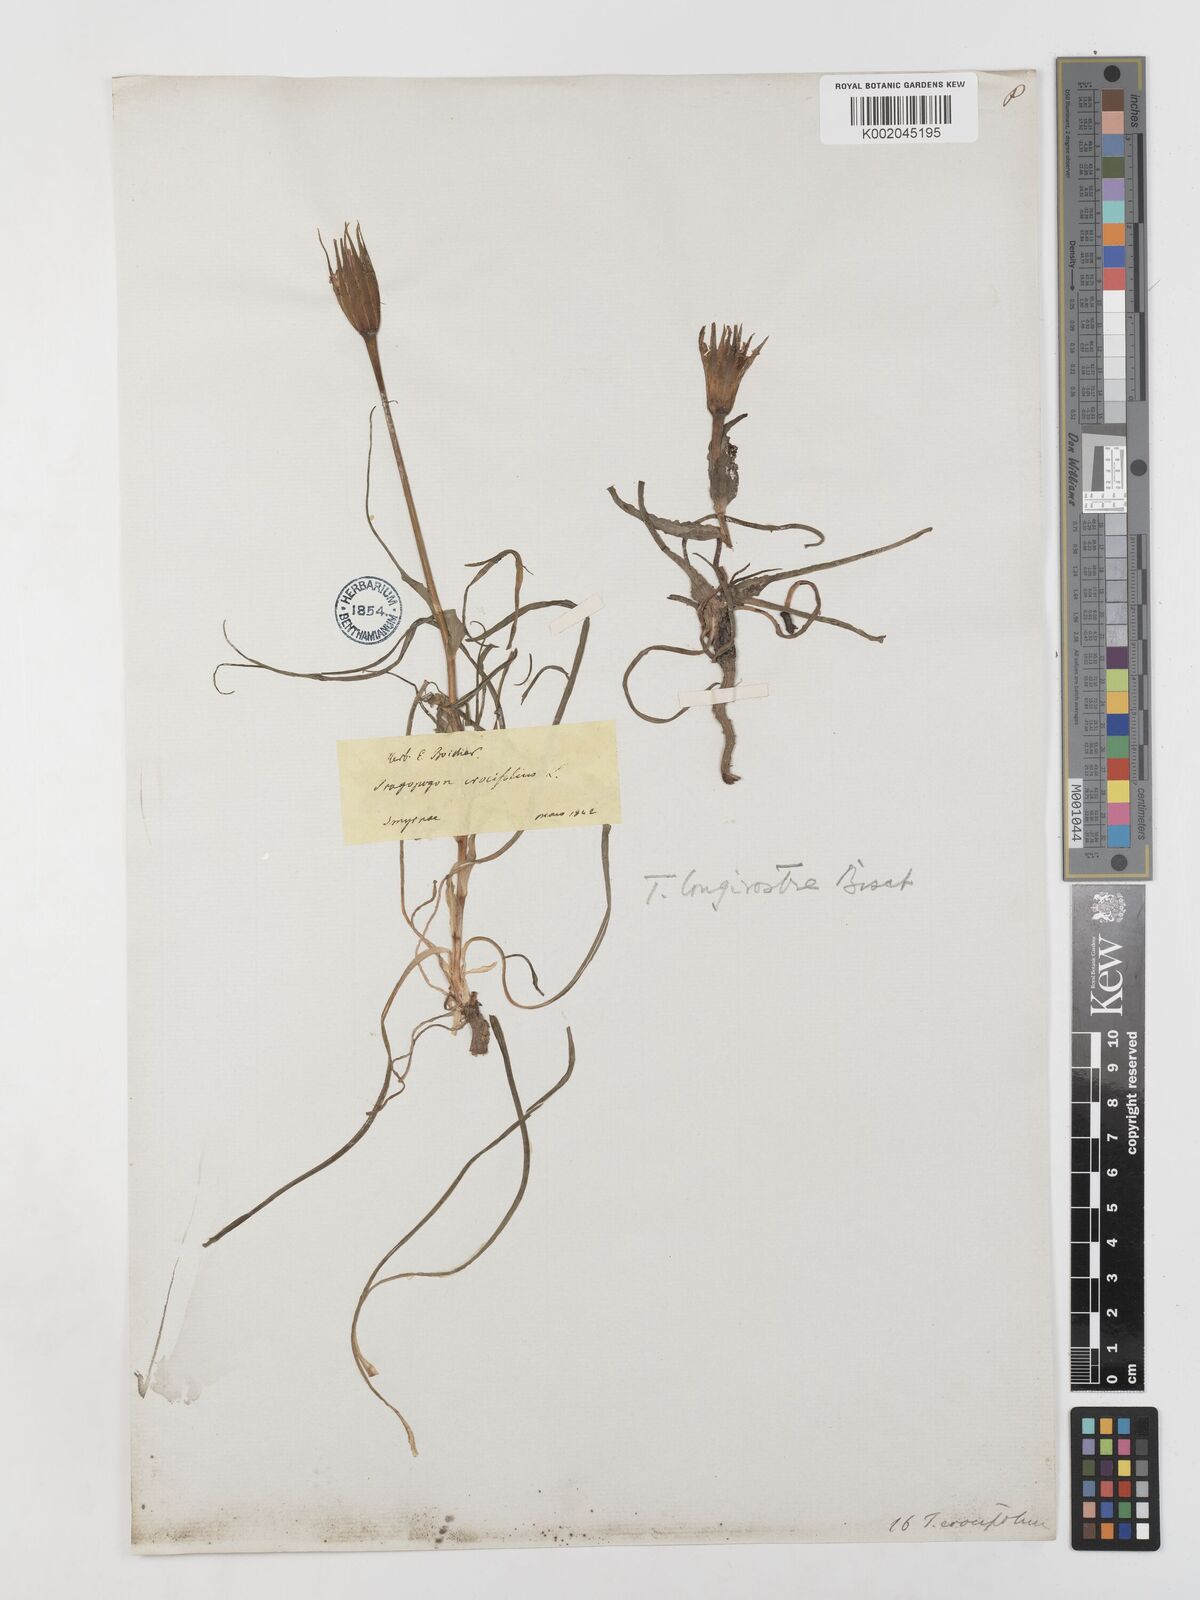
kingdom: Plantae
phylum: Tracheophyta
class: Magnoliopsida
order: Asterales
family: Asteraceae
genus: Tragopogon
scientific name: Tragopogon coelesyriacus
